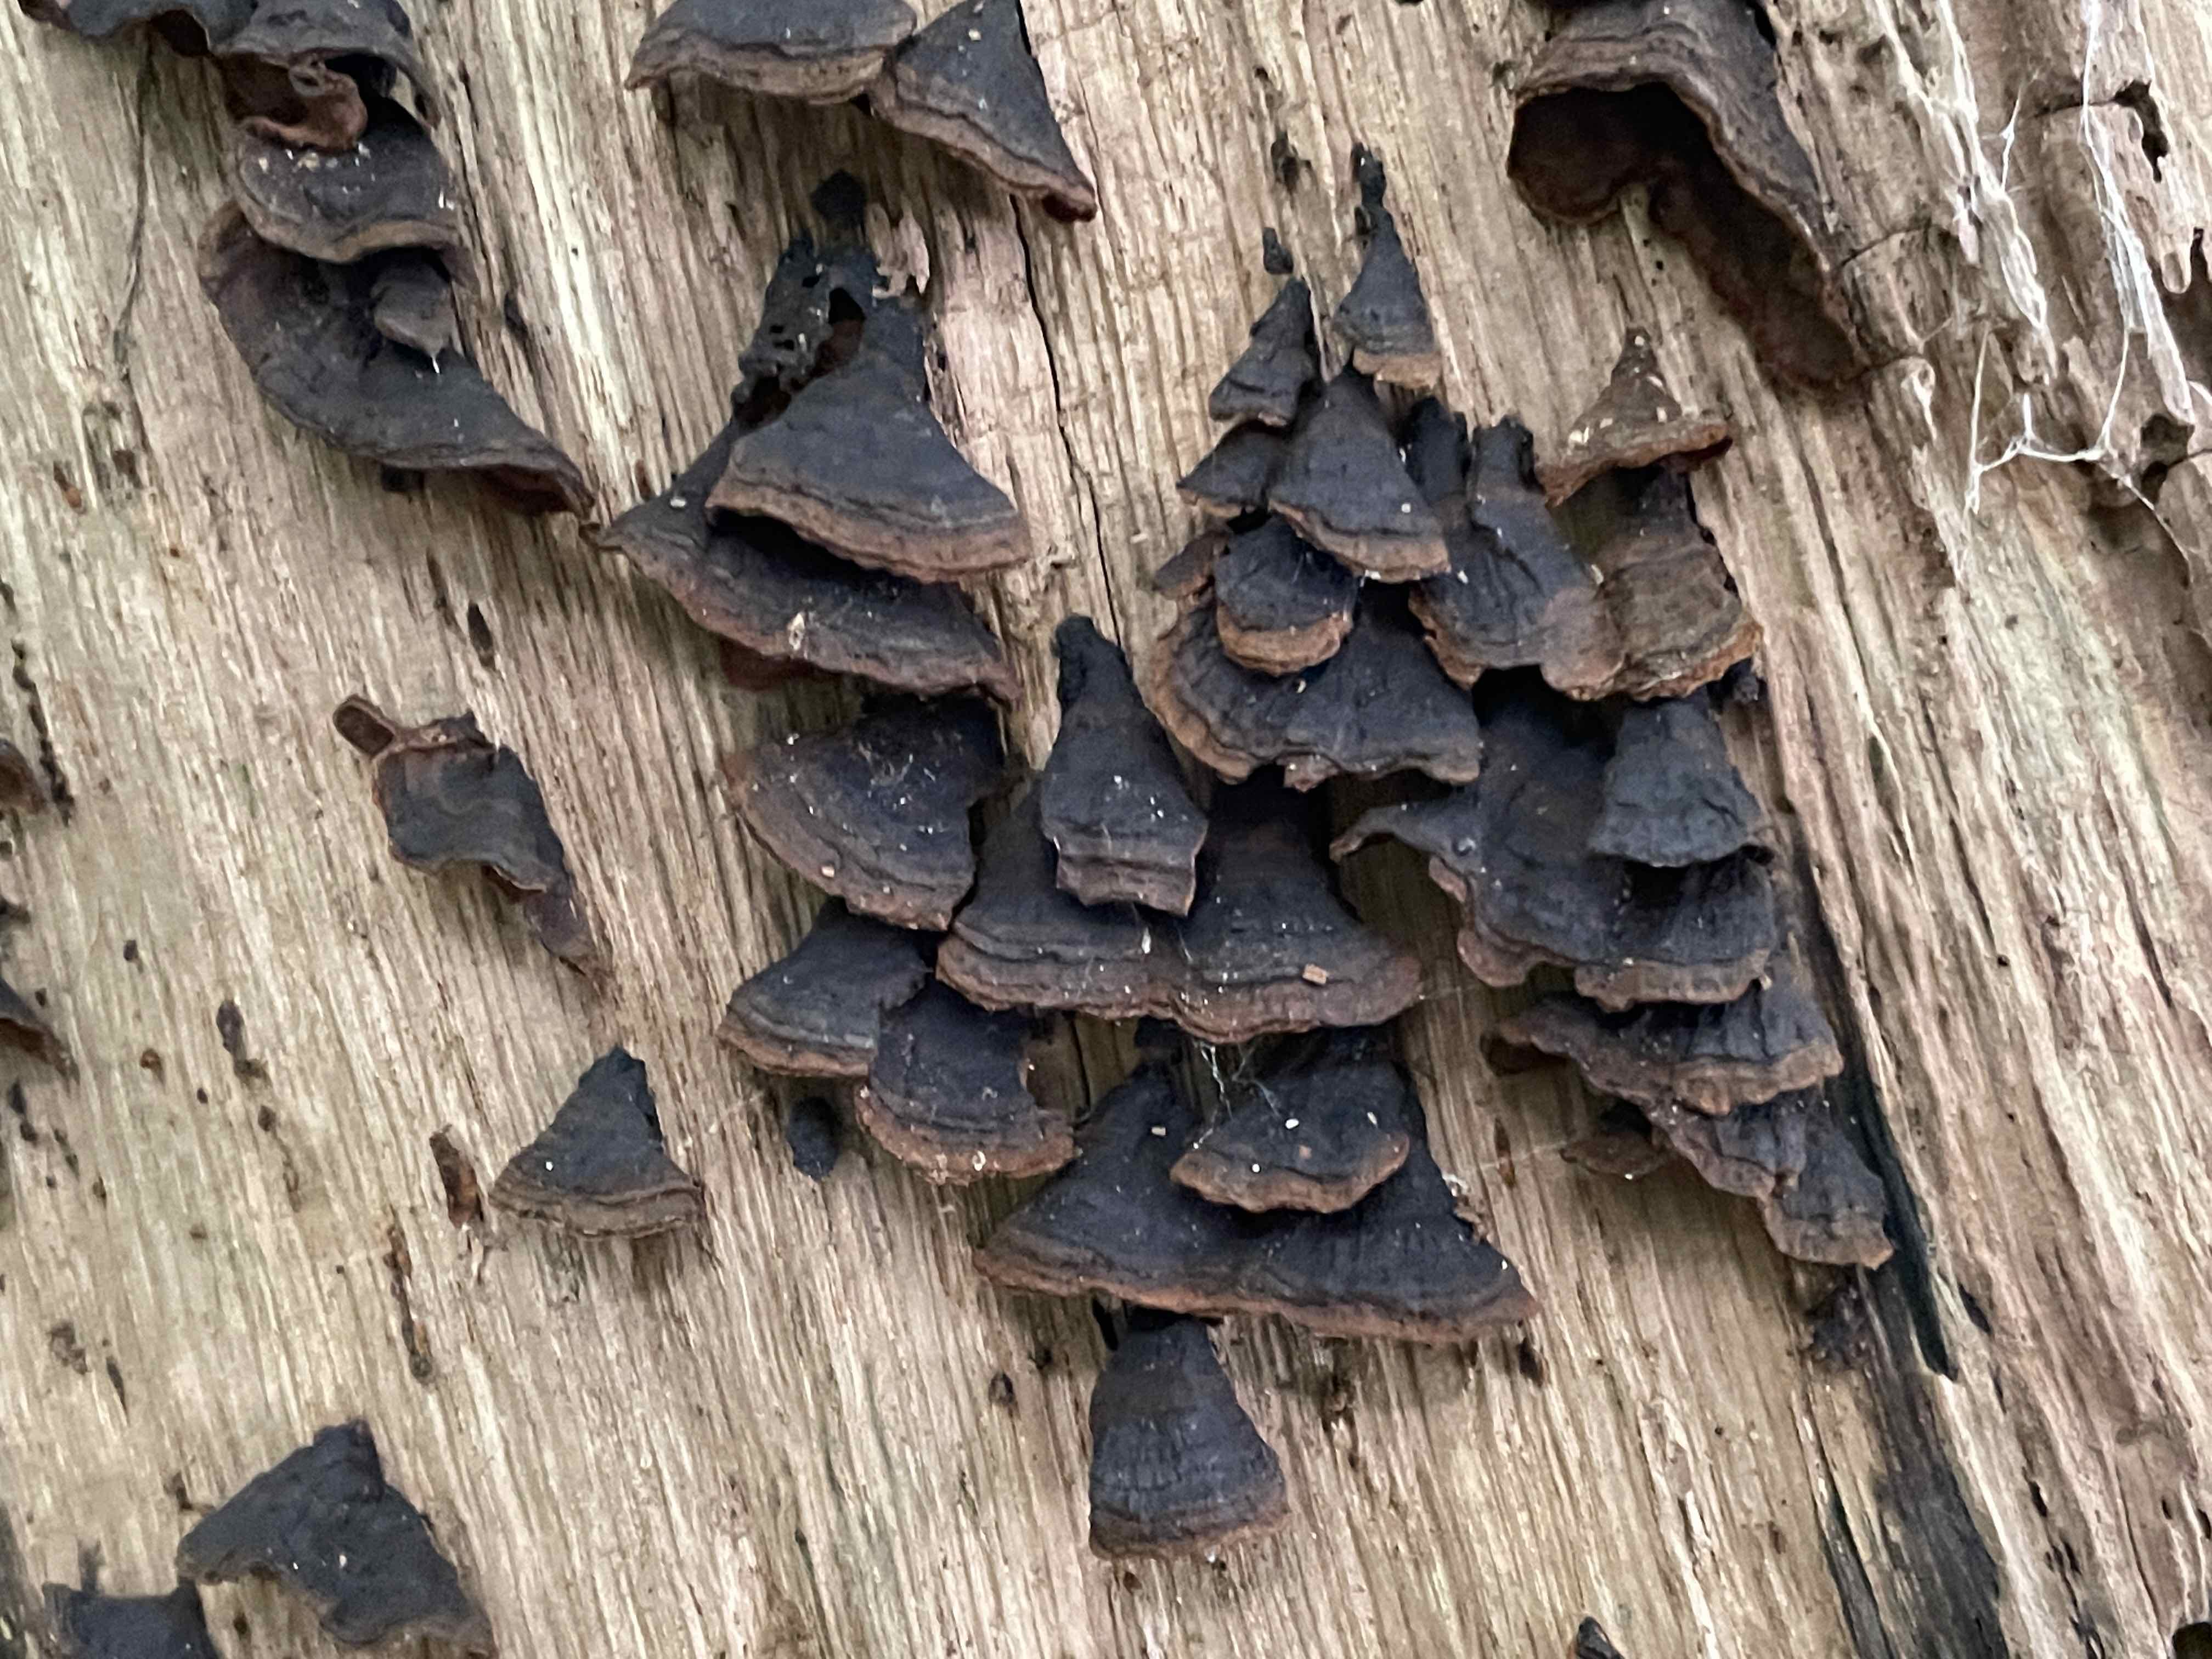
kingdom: Fungi
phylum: Basidiomycota
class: Agaricomycetes
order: Hymenochaetales
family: Hymenochaetaceae
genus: Hymenochaete
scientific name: Hymenochaete rubiginosa
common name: stiv ruslædersvamp
